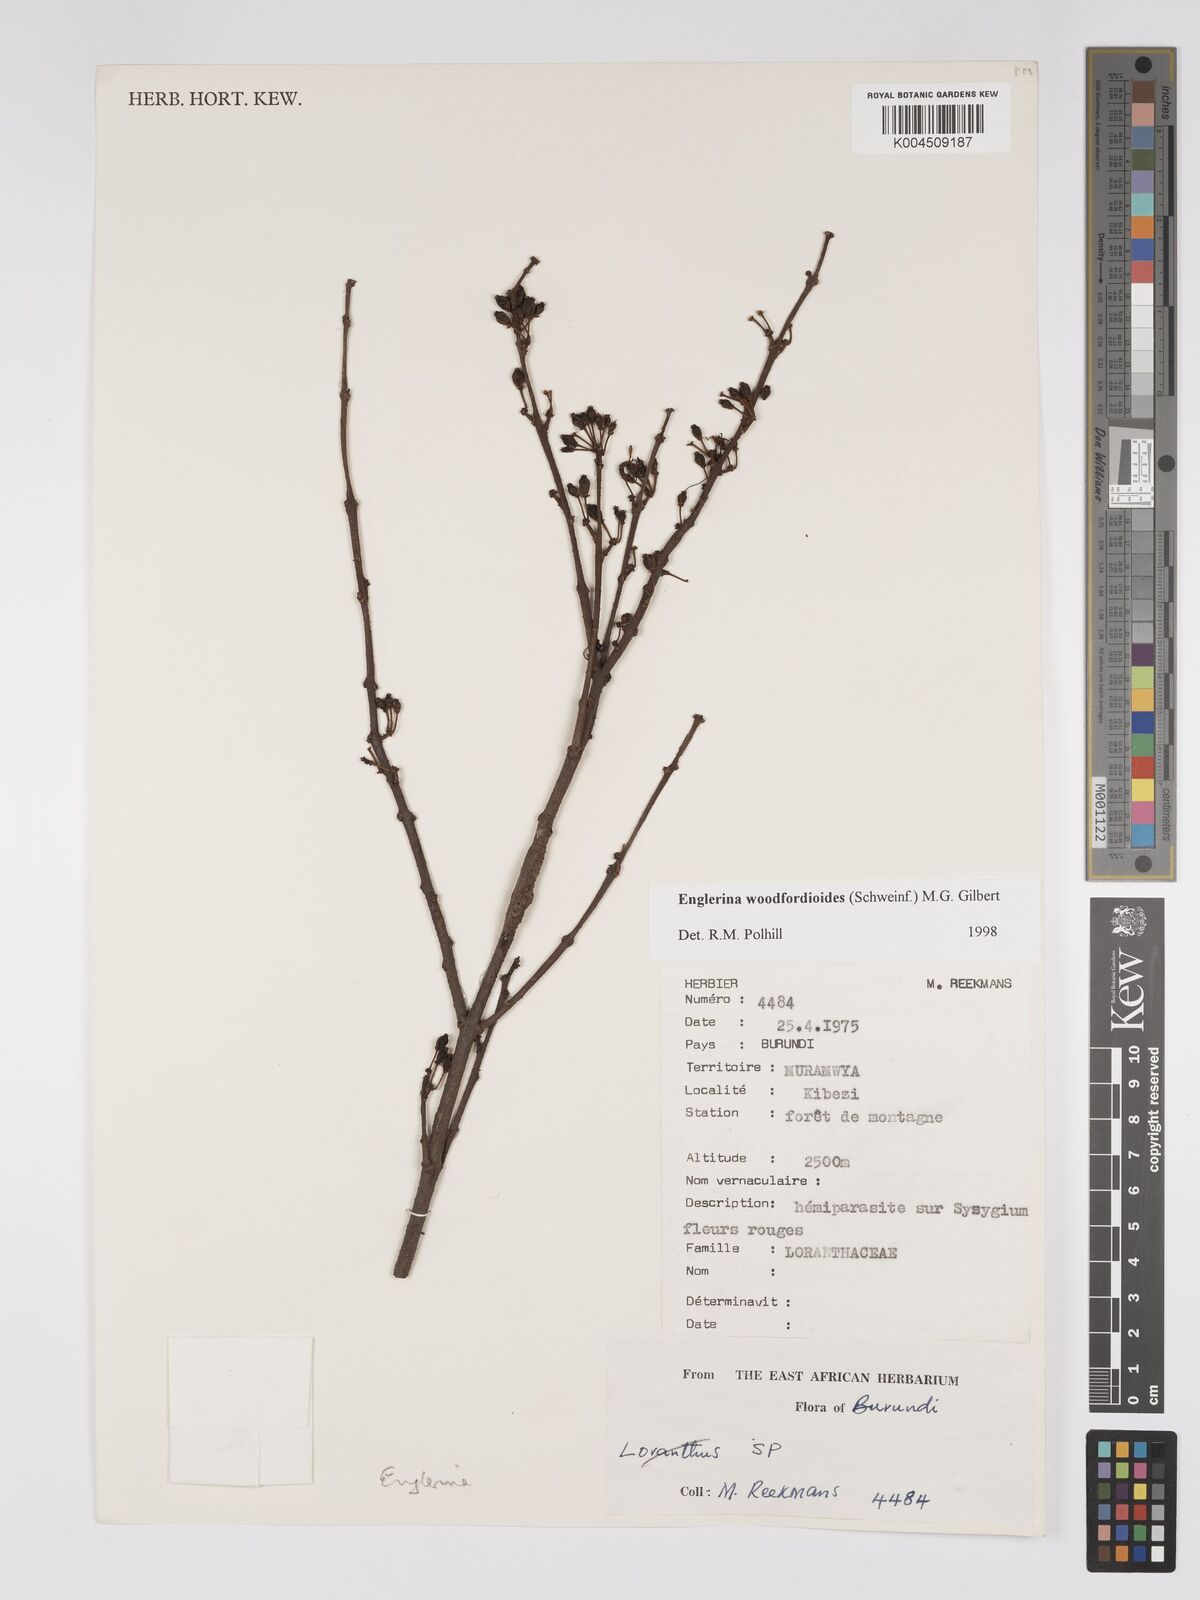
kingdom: Plantae
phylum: Tracheophyta
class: Magnoliopsida
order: Santalales
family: Loranthaceae
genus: Englerina
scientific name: Englerina woodfordioides
